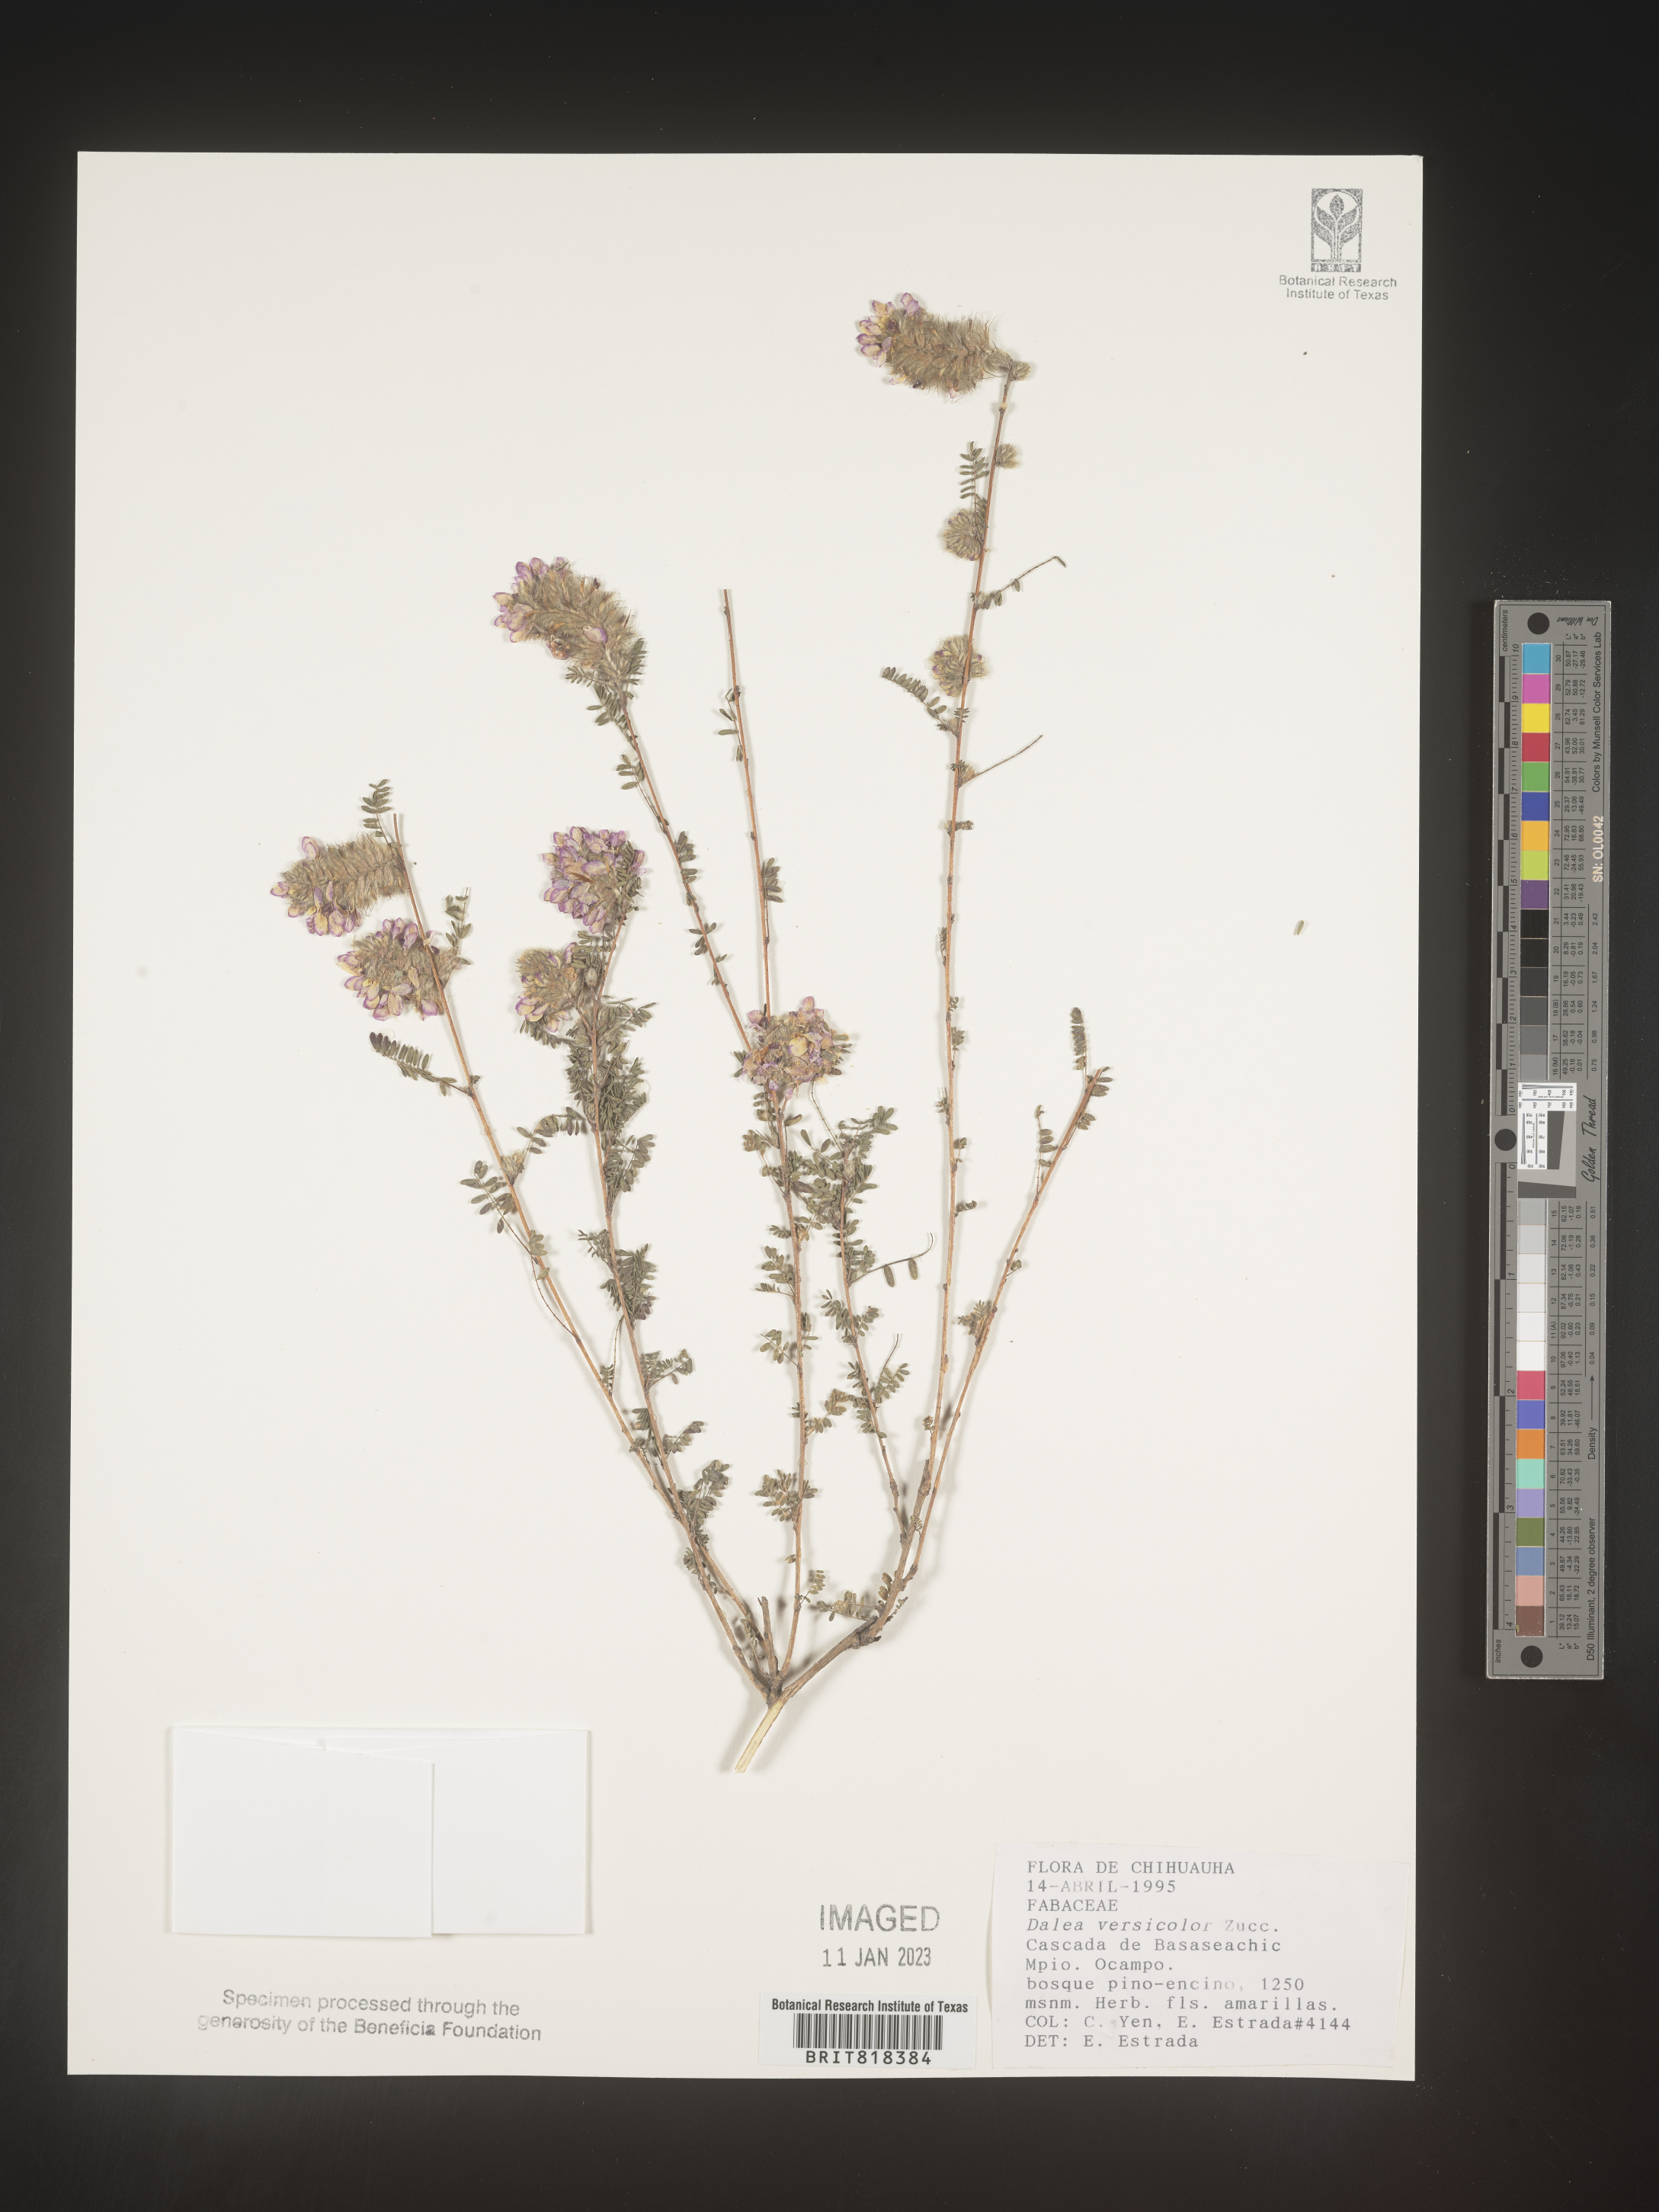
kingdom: Plantae
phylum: Tracheophyta
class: Magnoliopsida
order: Fabales
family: Fabaceae
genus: Dalea
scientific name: Dalea
